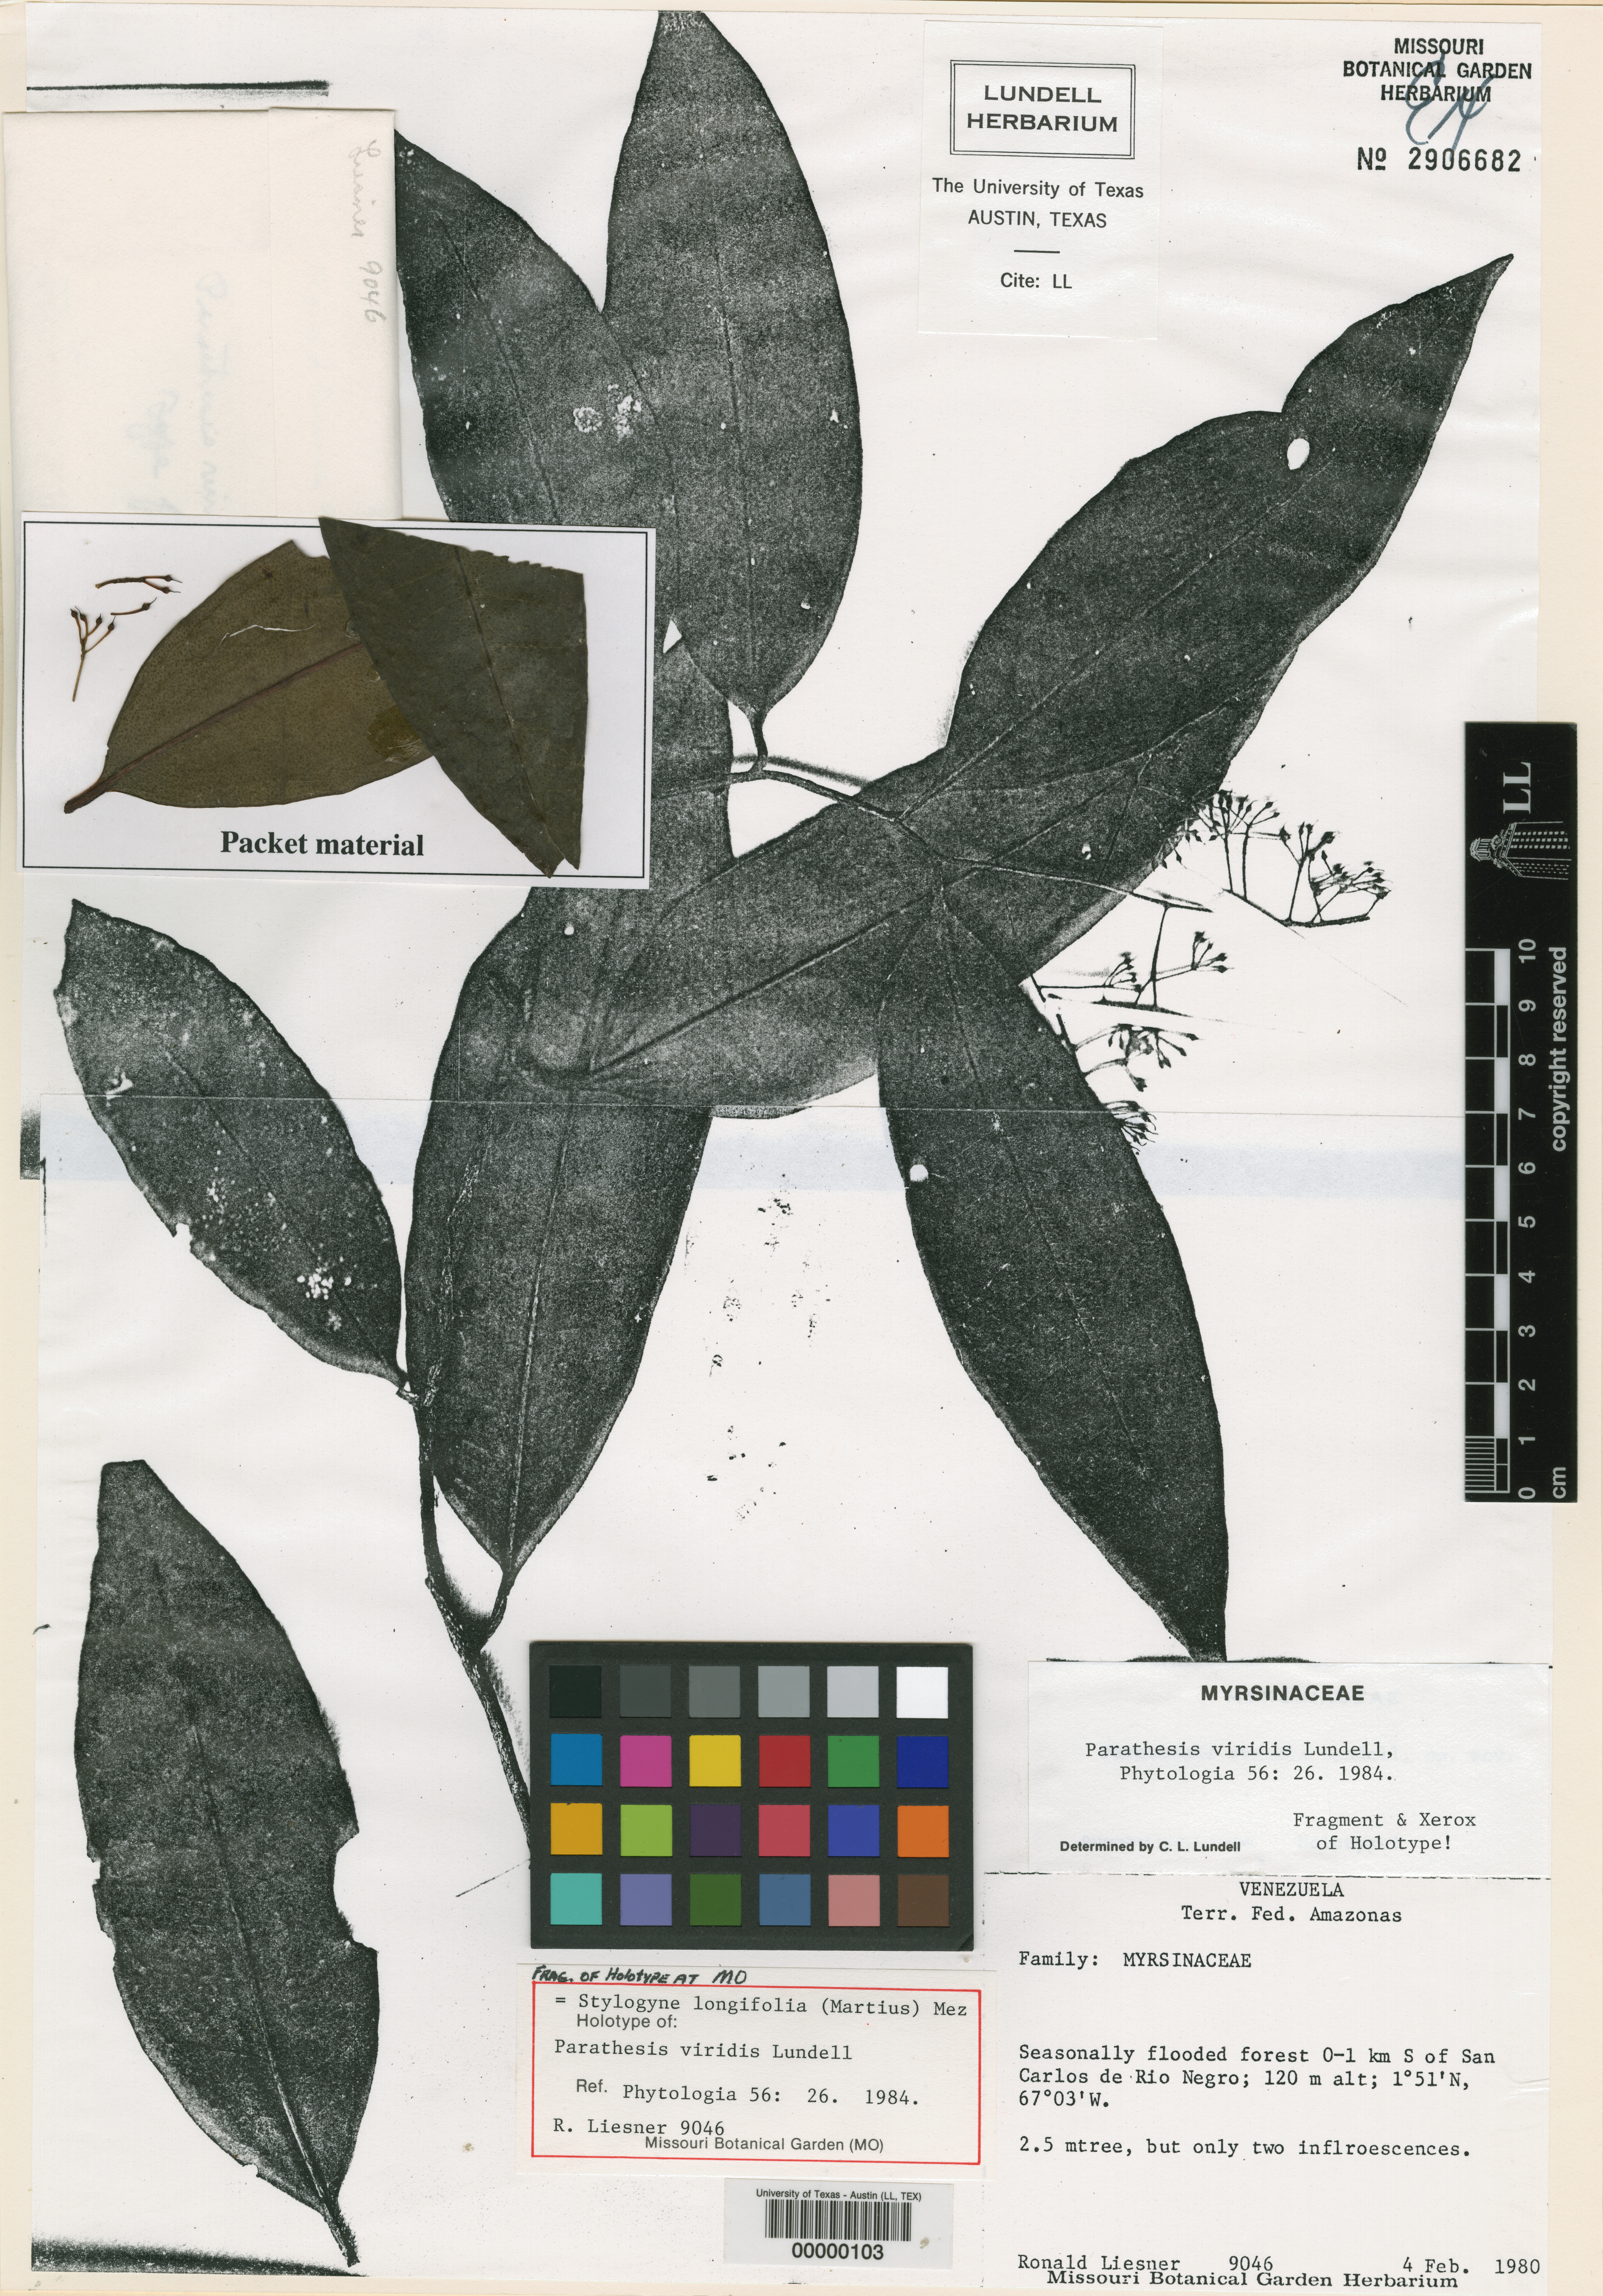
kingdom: Plantae
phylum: Tracheophyta
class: Magnoliopsida
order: Ericales
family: Primulaceae
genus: Stylogyne
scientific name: Stylogyne longifolia
